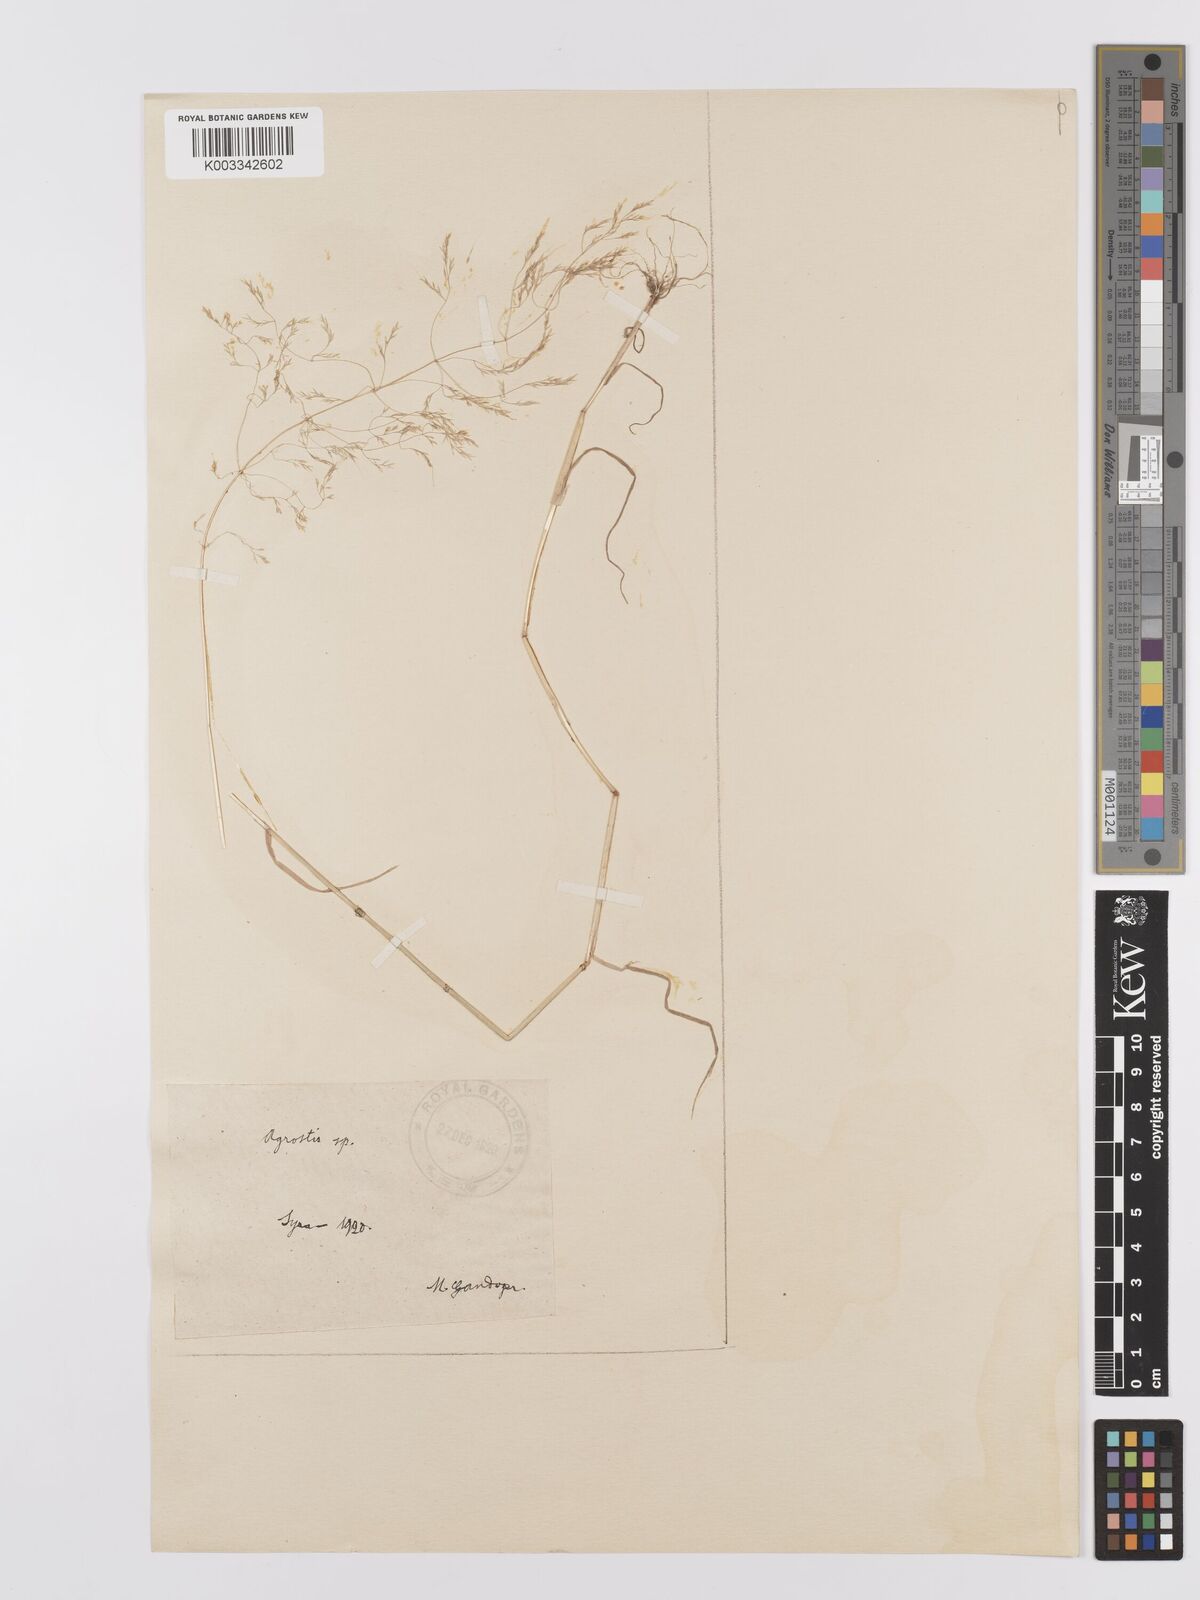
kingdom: Plantae
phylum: Tracheophyta
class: Liliopsida
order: Poales
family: Poaceae
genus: Agrostis
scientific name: Agrostis
